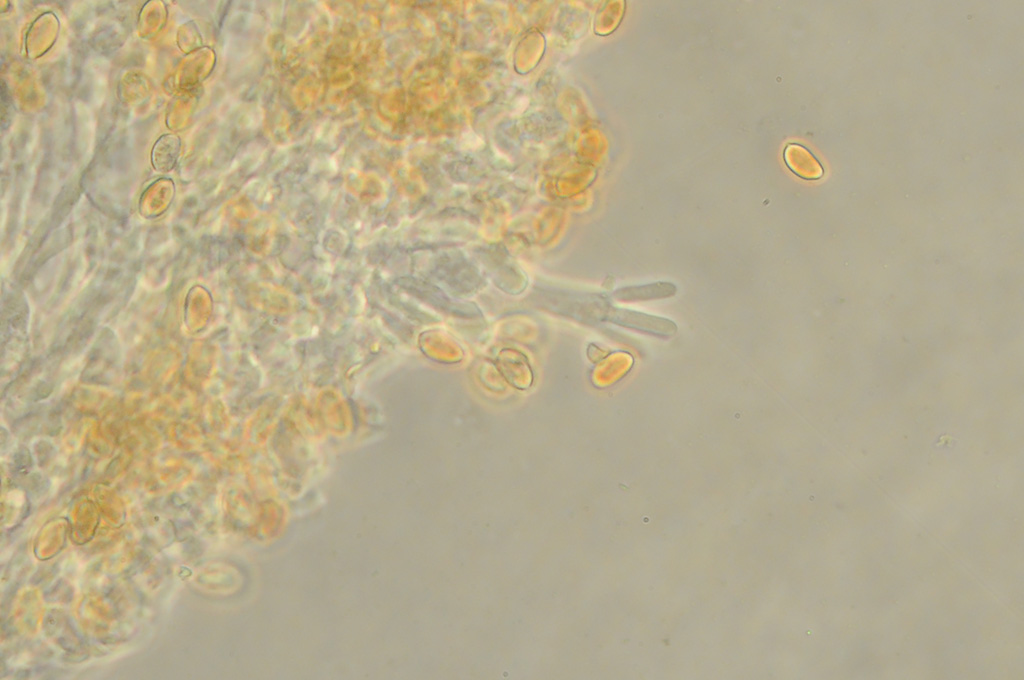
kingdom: Fungi
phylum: Basidiomycota
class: Agaricomycetes
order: Agaricales
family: Strophariaceae
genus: Agrocybe
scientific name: Agrocybe arvalis
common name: rodslående agerhat
